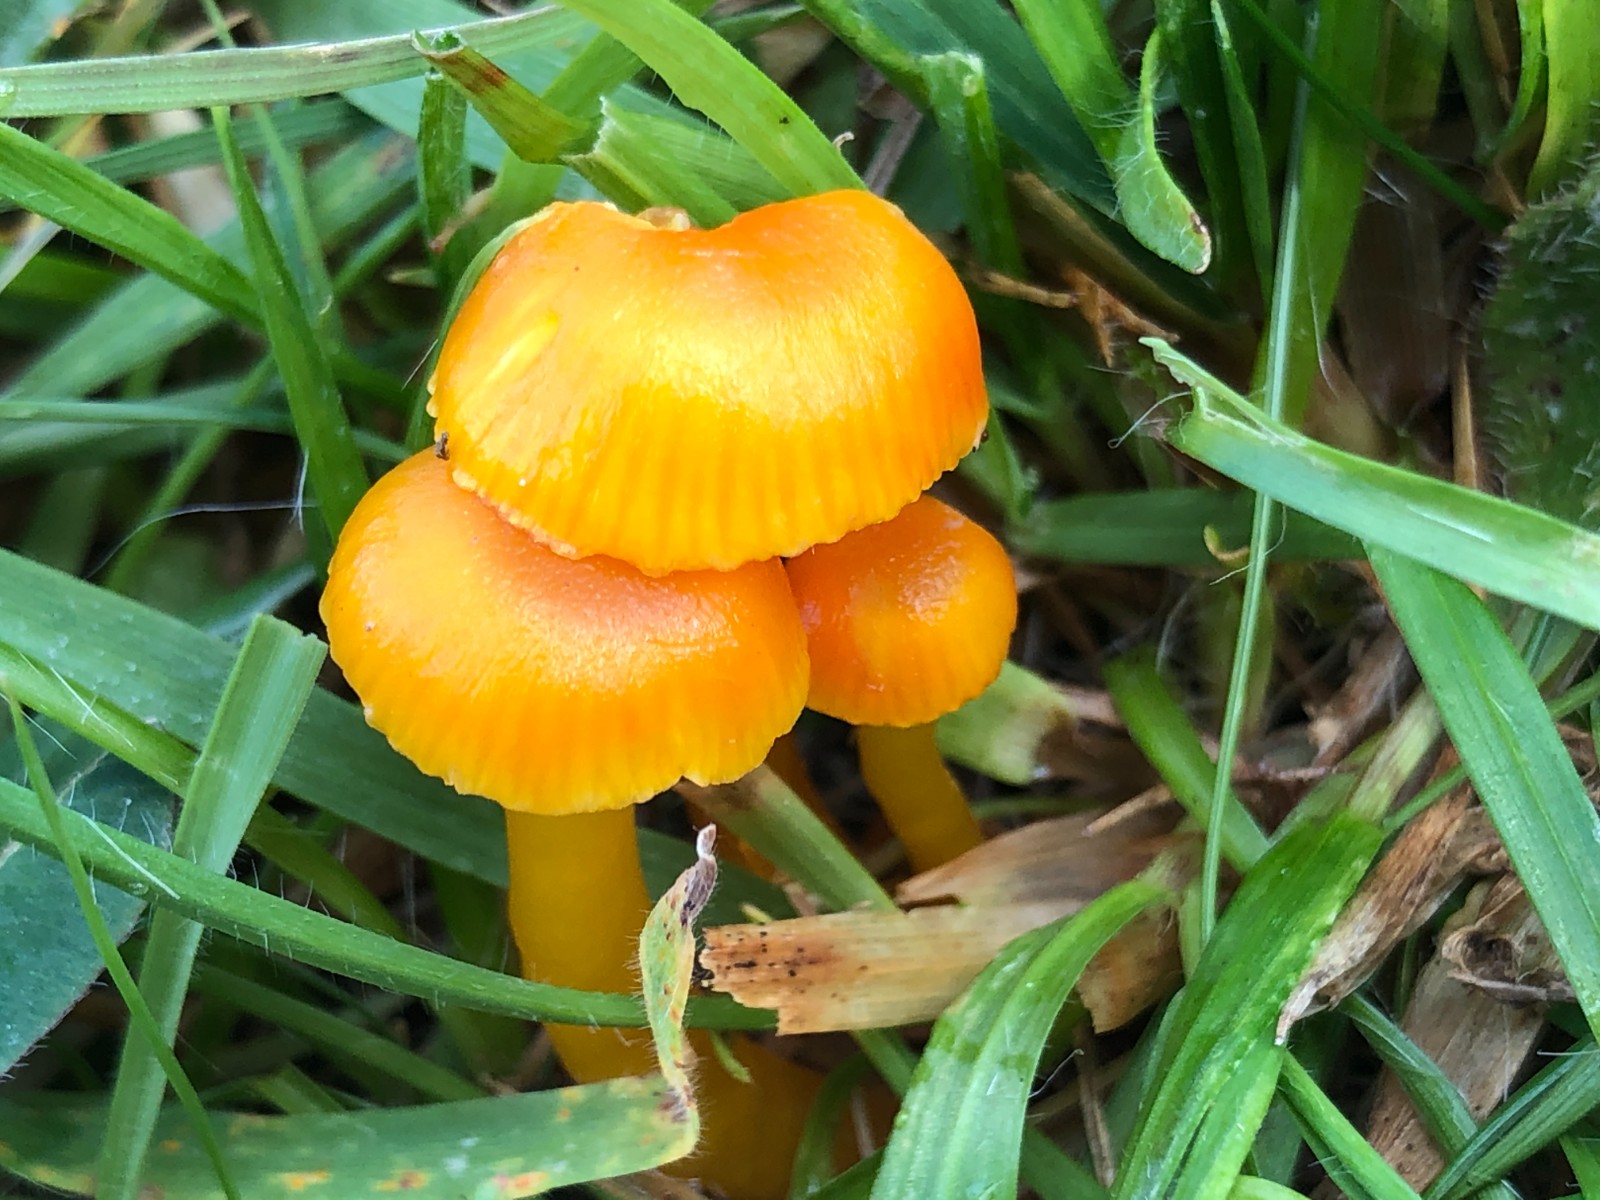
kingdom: Fungi
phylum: Basidiomycota
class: Agaricomycetes
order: Agaricales
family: Hygrophoraceae
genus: Hygrocybe
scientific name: Hygrocybe miniata
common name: mønje-vokshat
